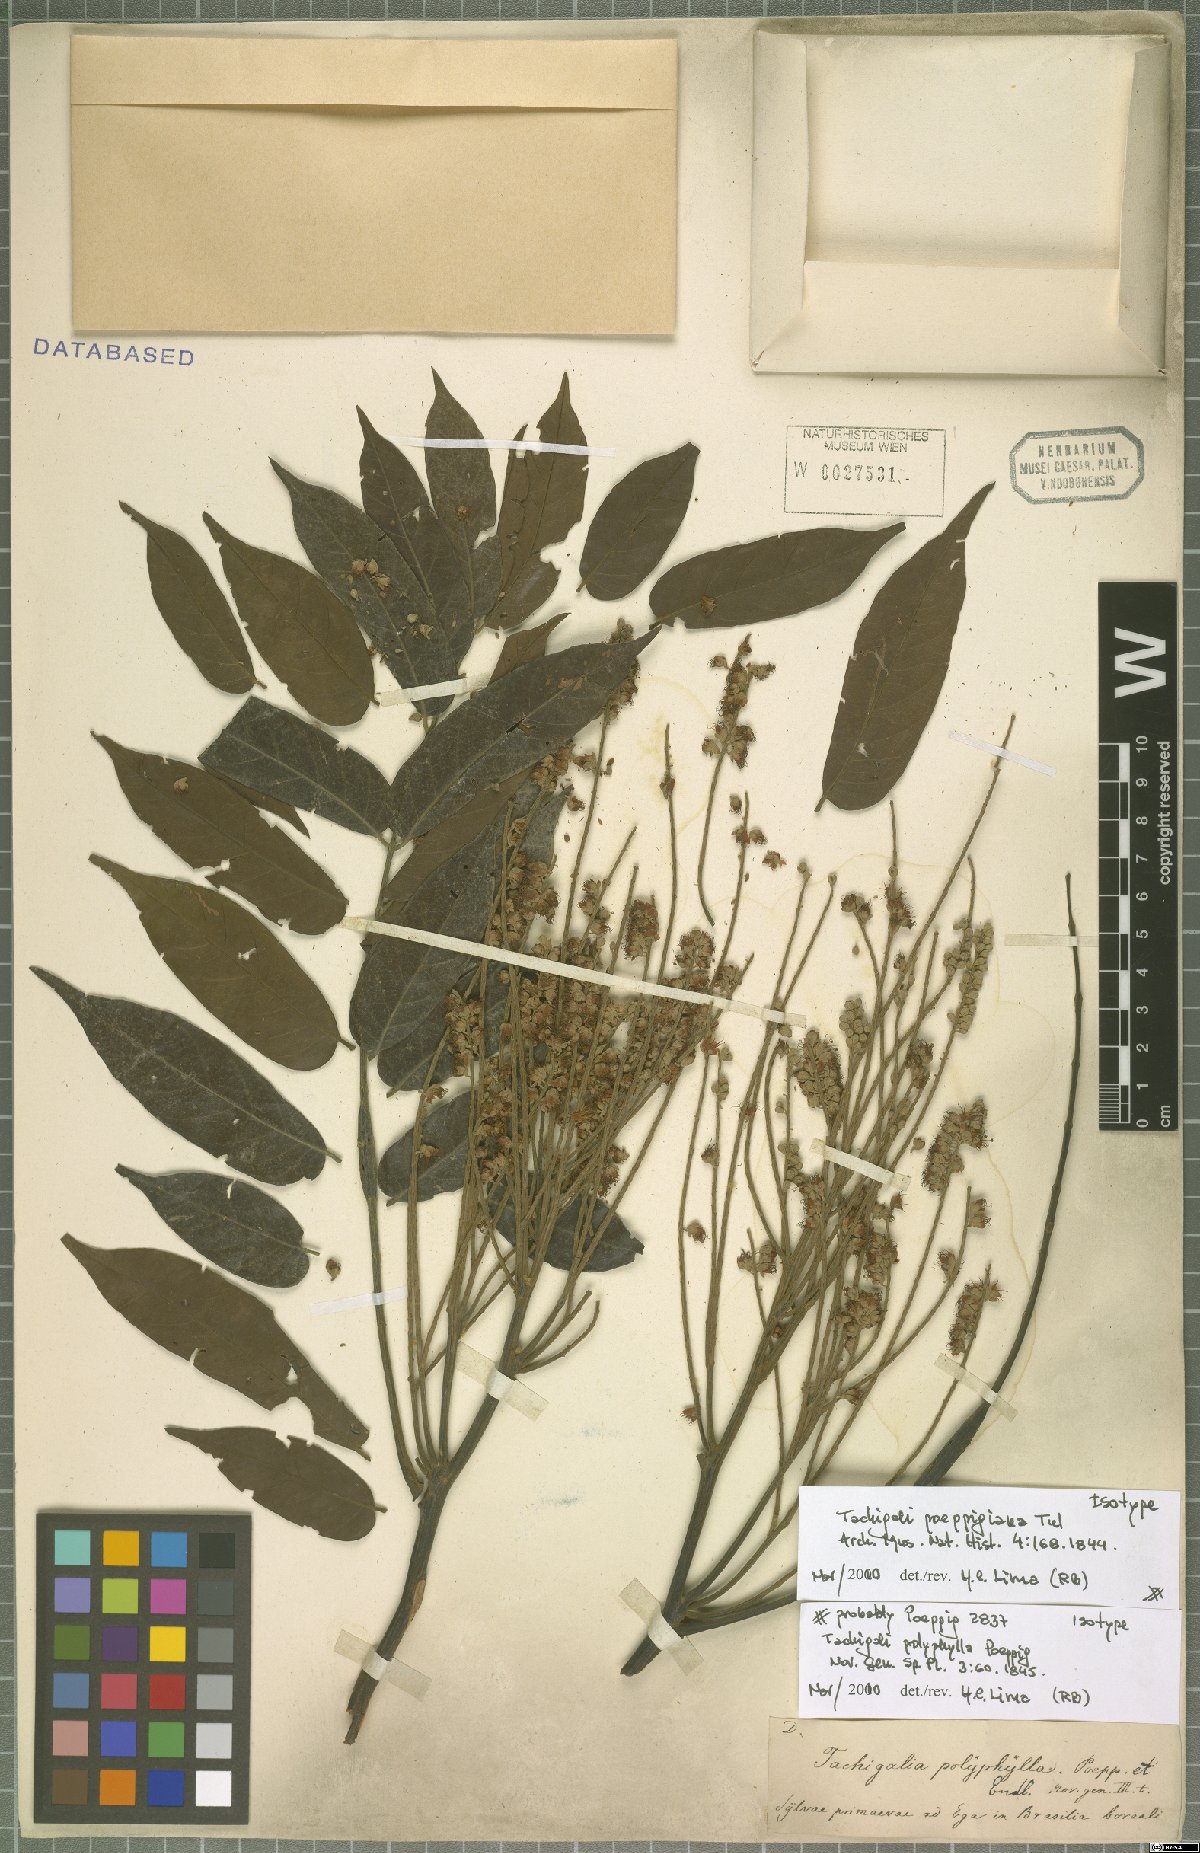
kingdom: Plantae
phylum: Tracheophyta
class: Magnoliopsida
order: Fabales
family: Fabaceae
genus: Tachigali
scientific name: Tachigali poeppigiana
